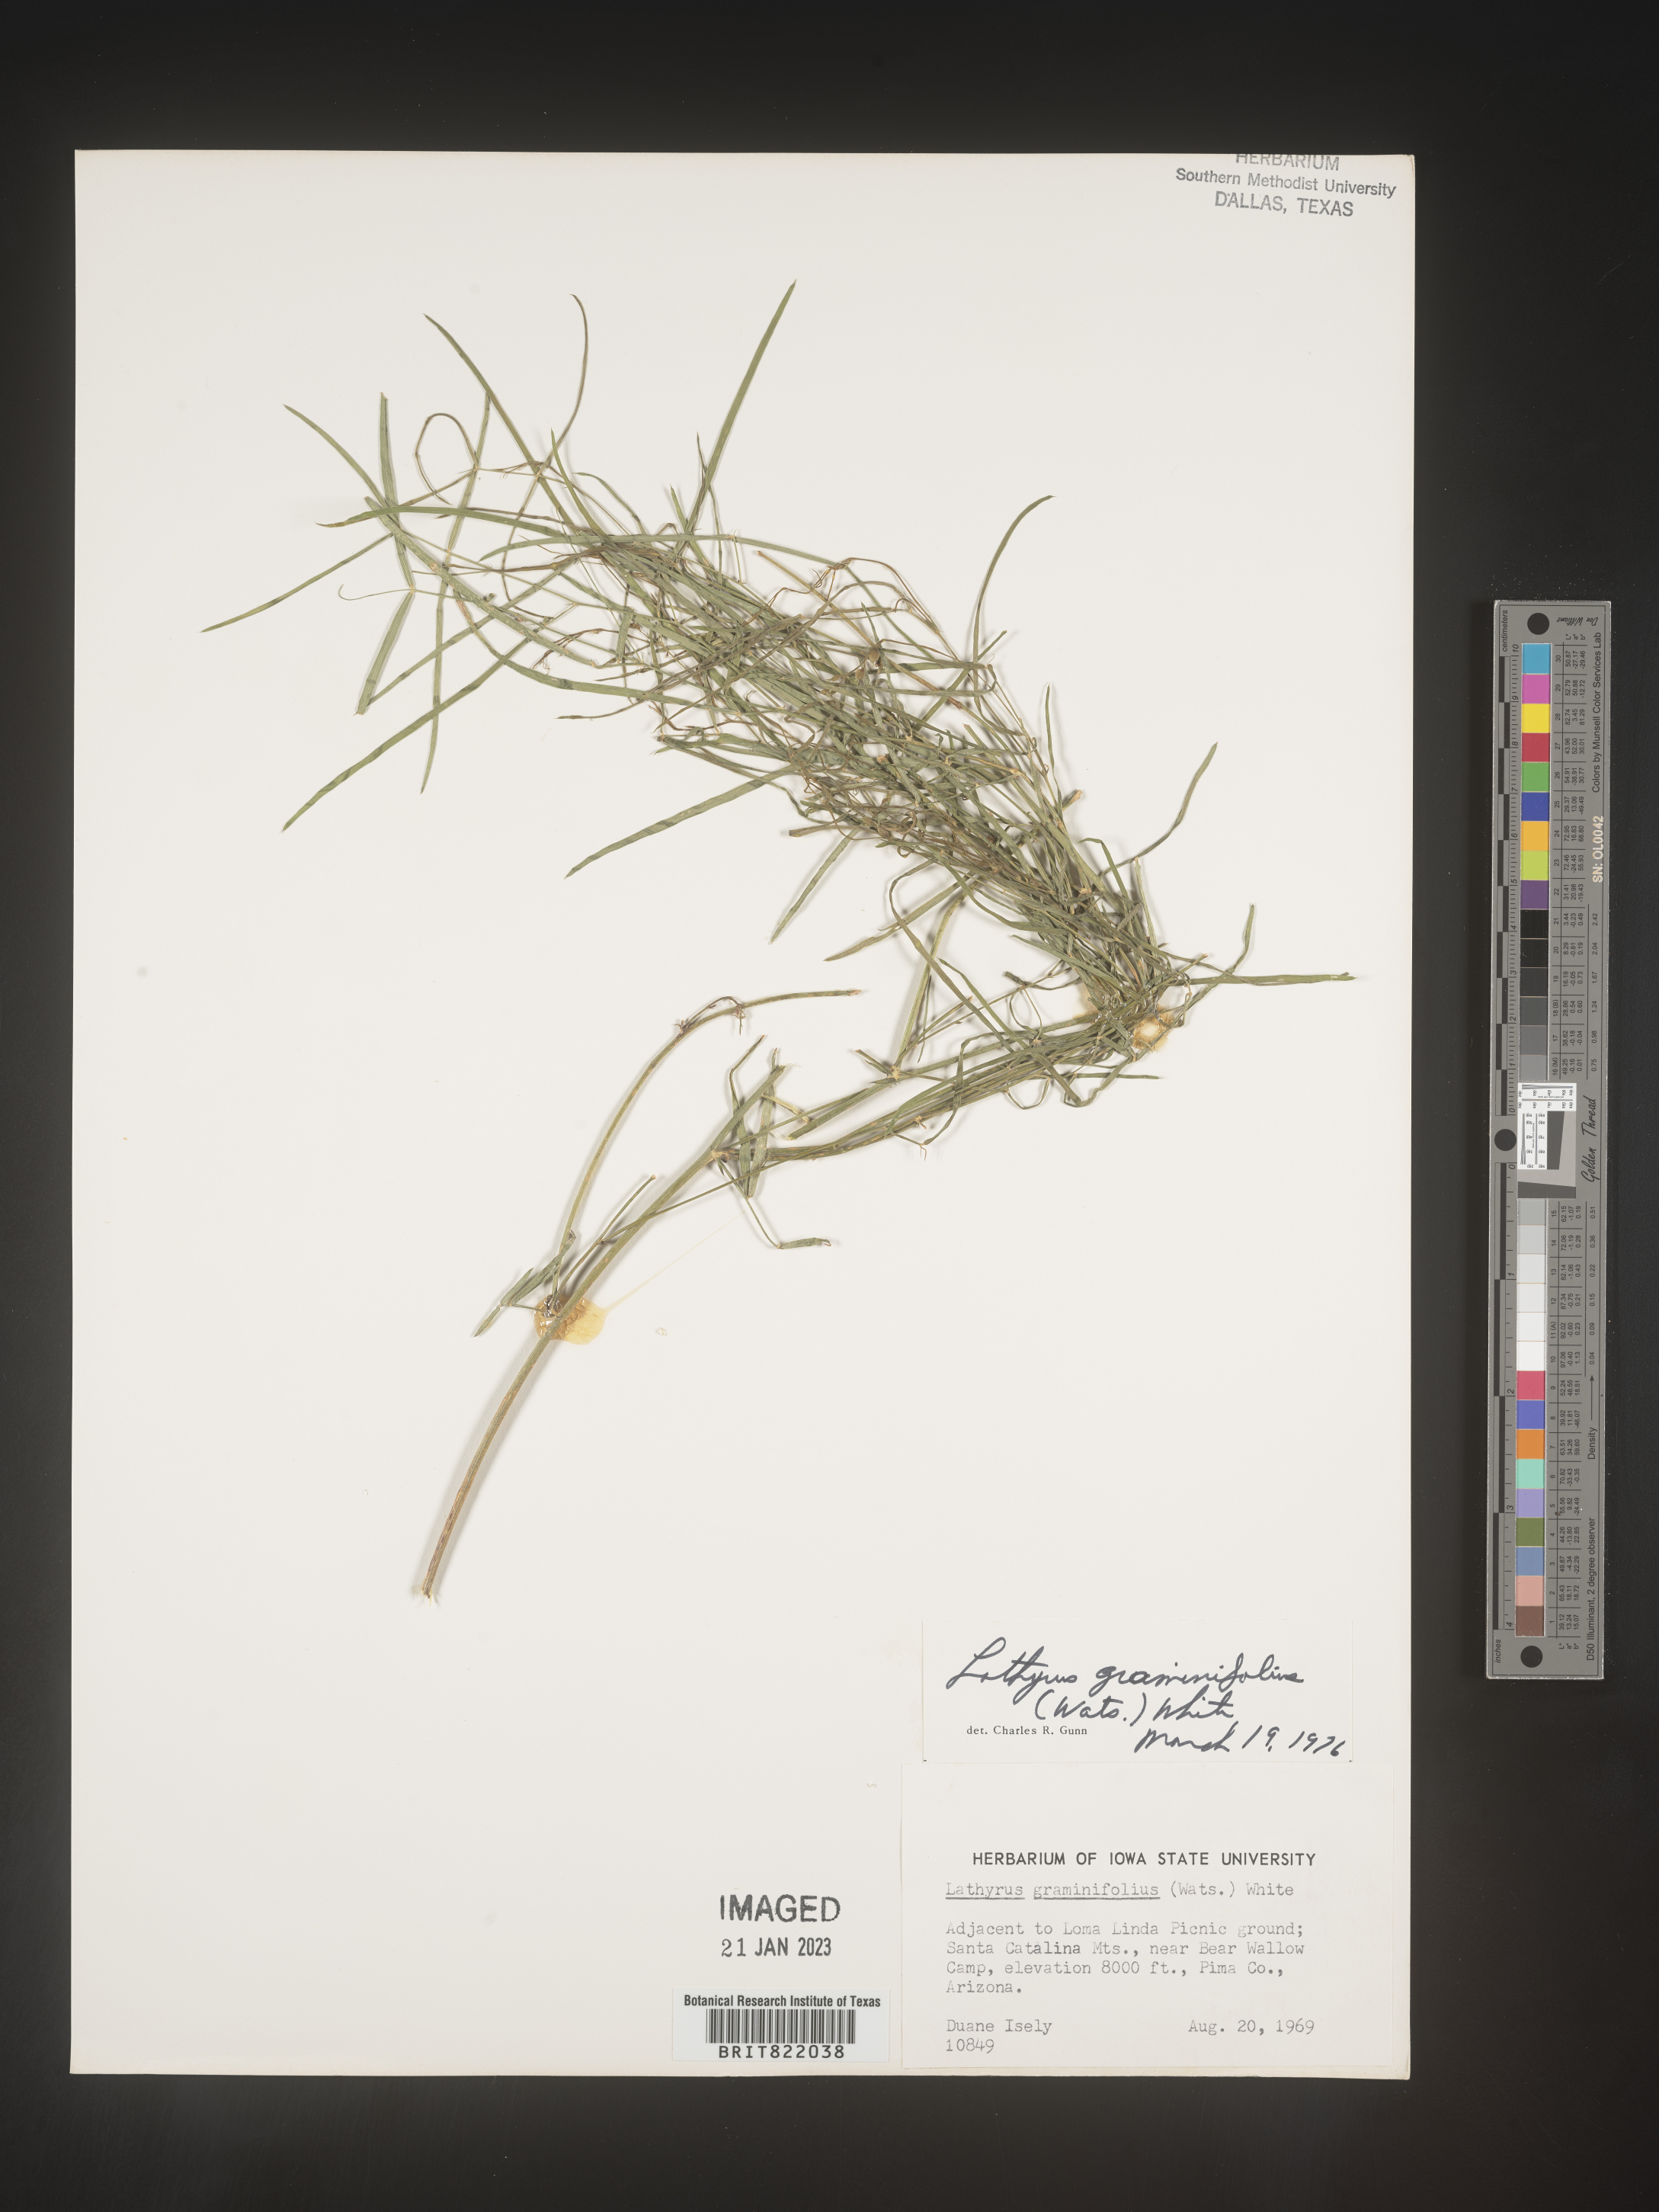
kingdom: Plantae
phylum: Tracheophyta
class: Magnoliopsida
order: Fabales
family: Fabaceae
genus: Lathyrus
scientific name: Lathyrus
